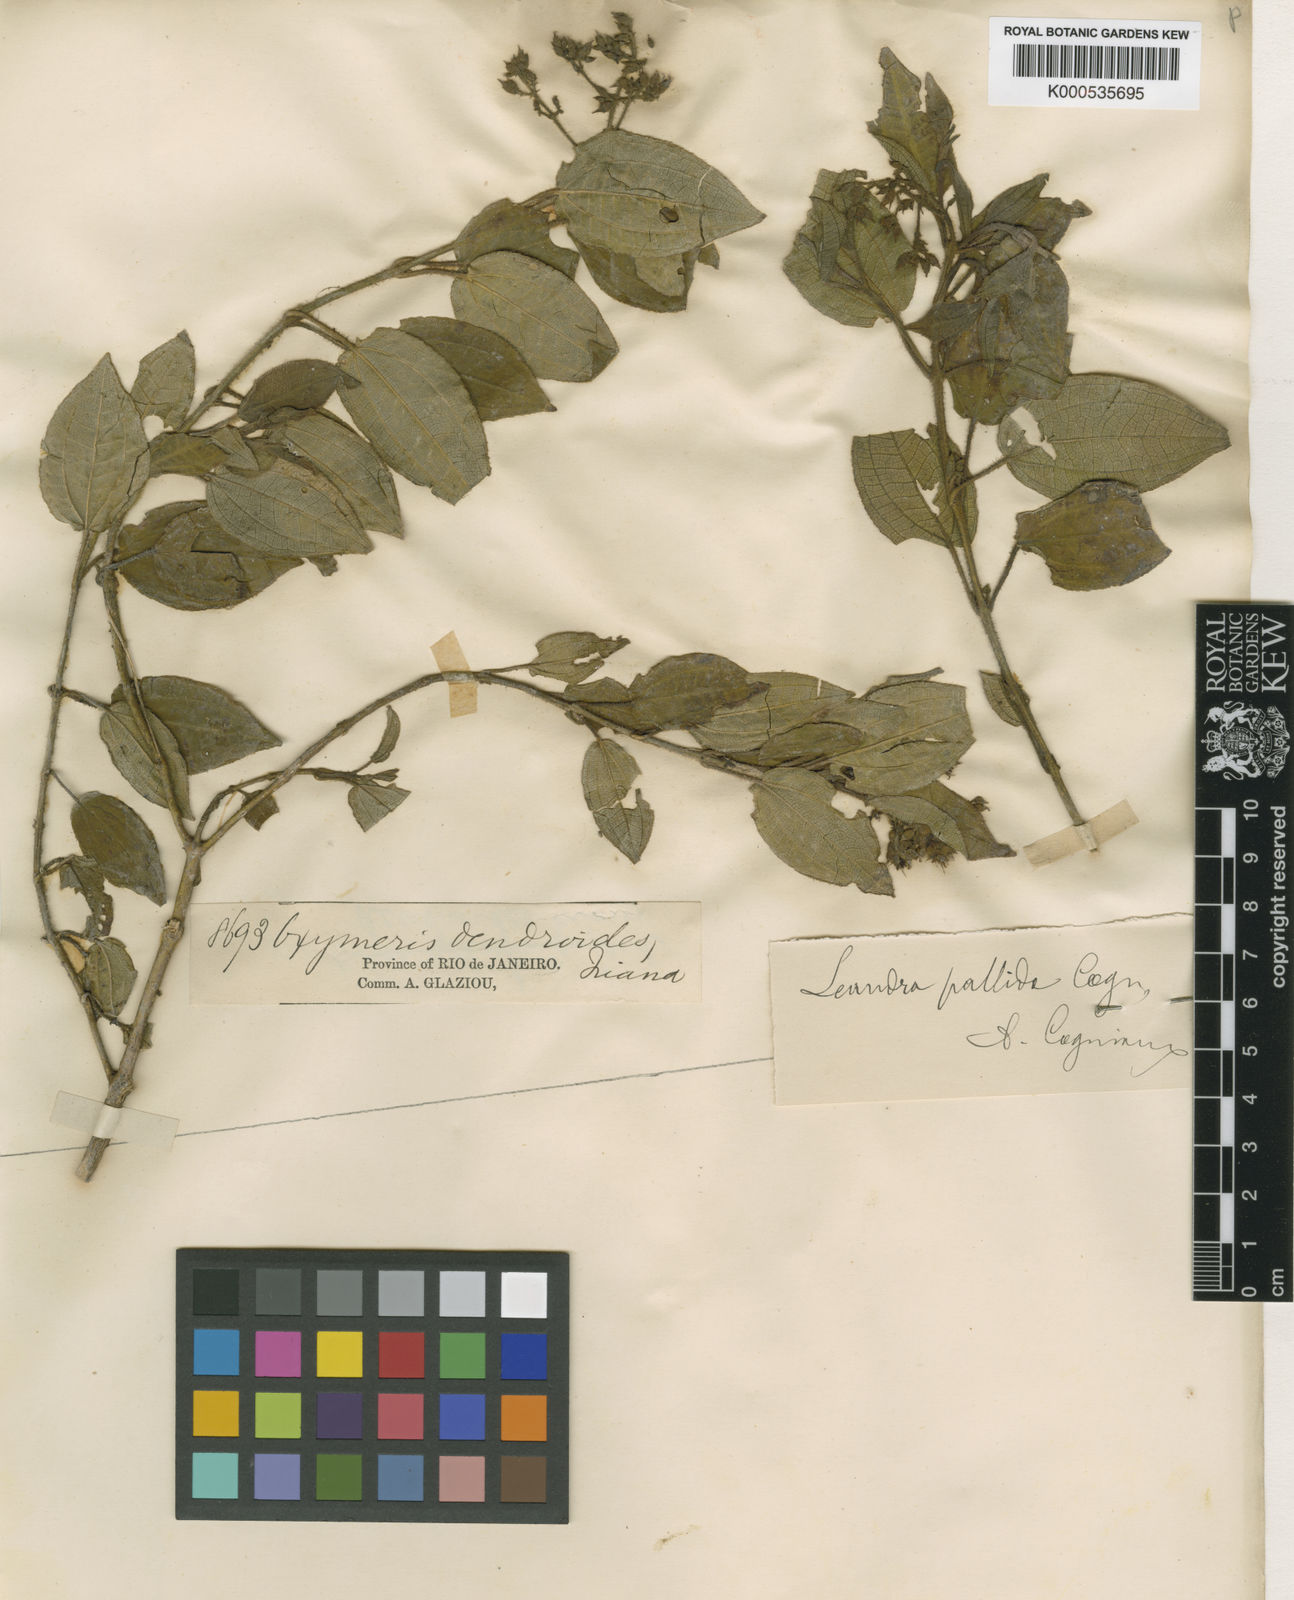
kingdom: Plantae
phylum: Tracheophyta
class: Magnoliopsida
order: Myrtales
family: Melastomataceae
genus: Miconia
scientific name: Miconia leapallida
